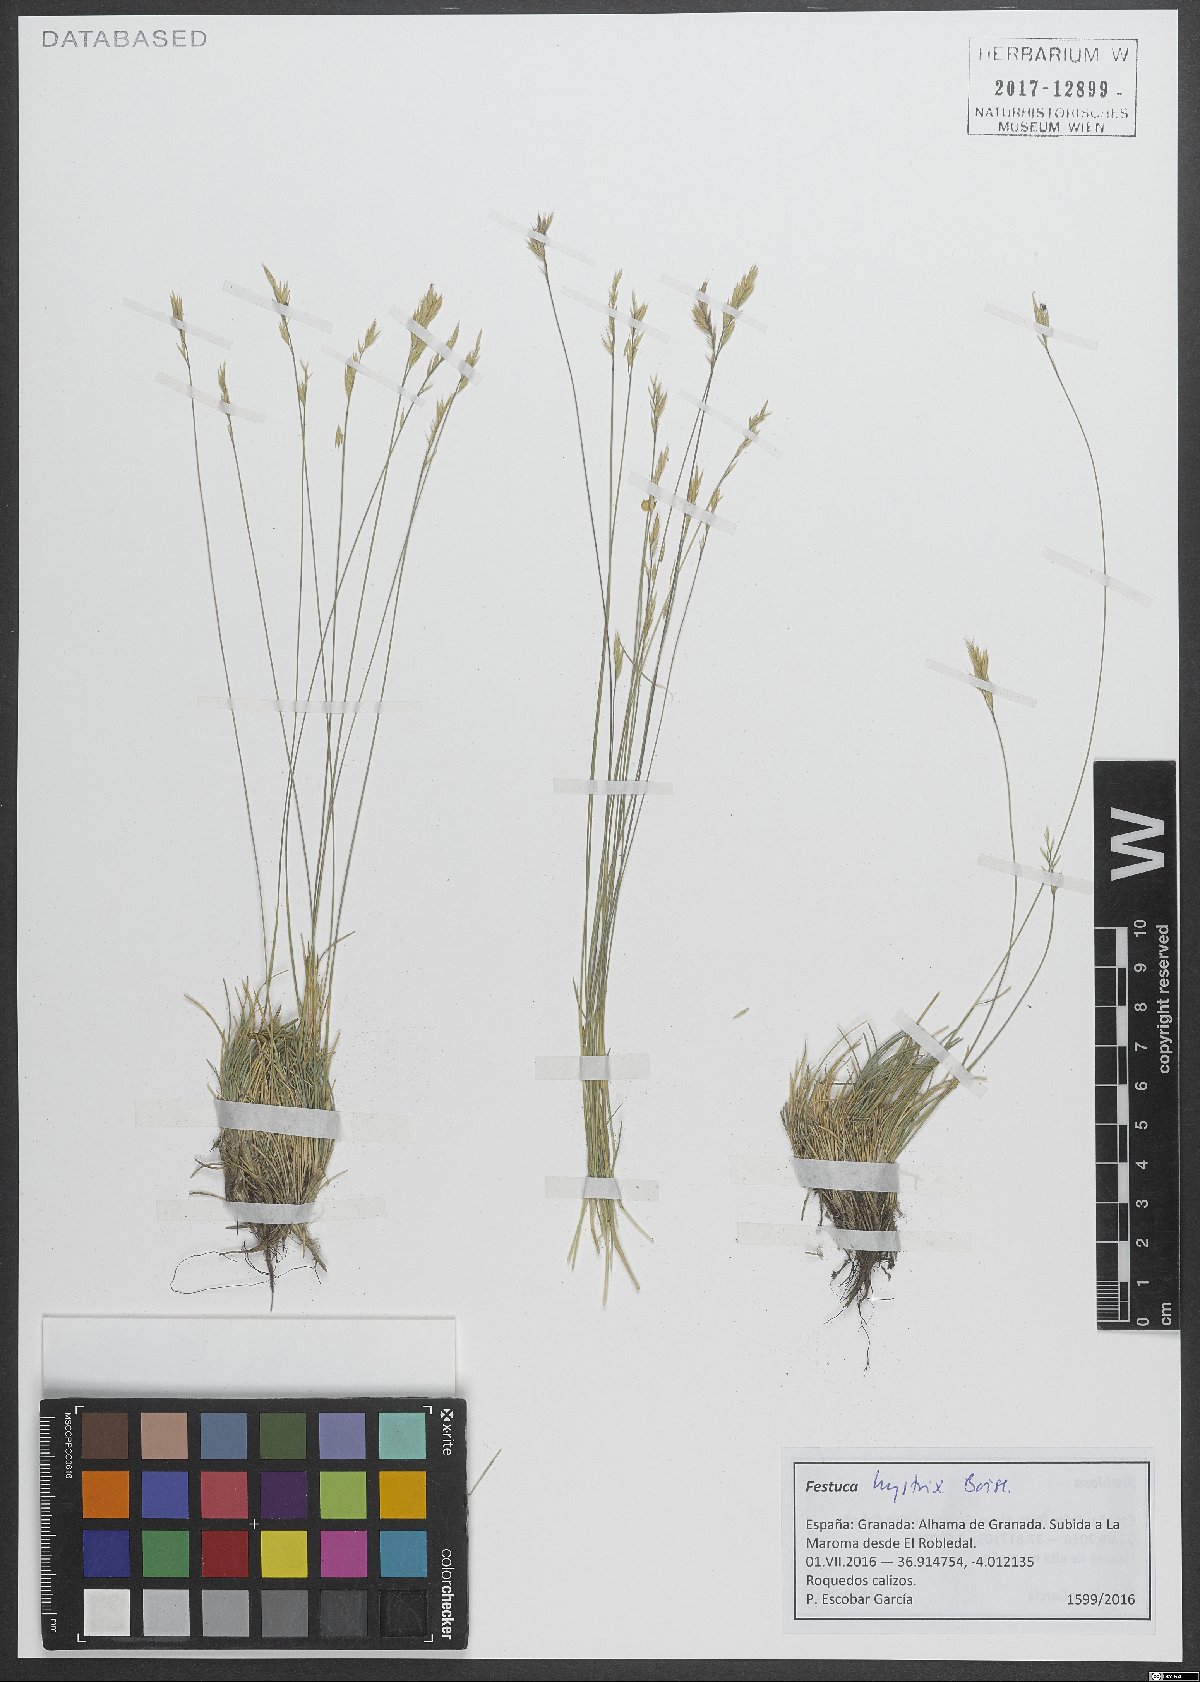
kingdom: Plantae
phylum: Tracheophyta
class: Liliopsida
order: Poales
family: Poaceae
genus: Festuca
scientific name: Festuca hystrix
